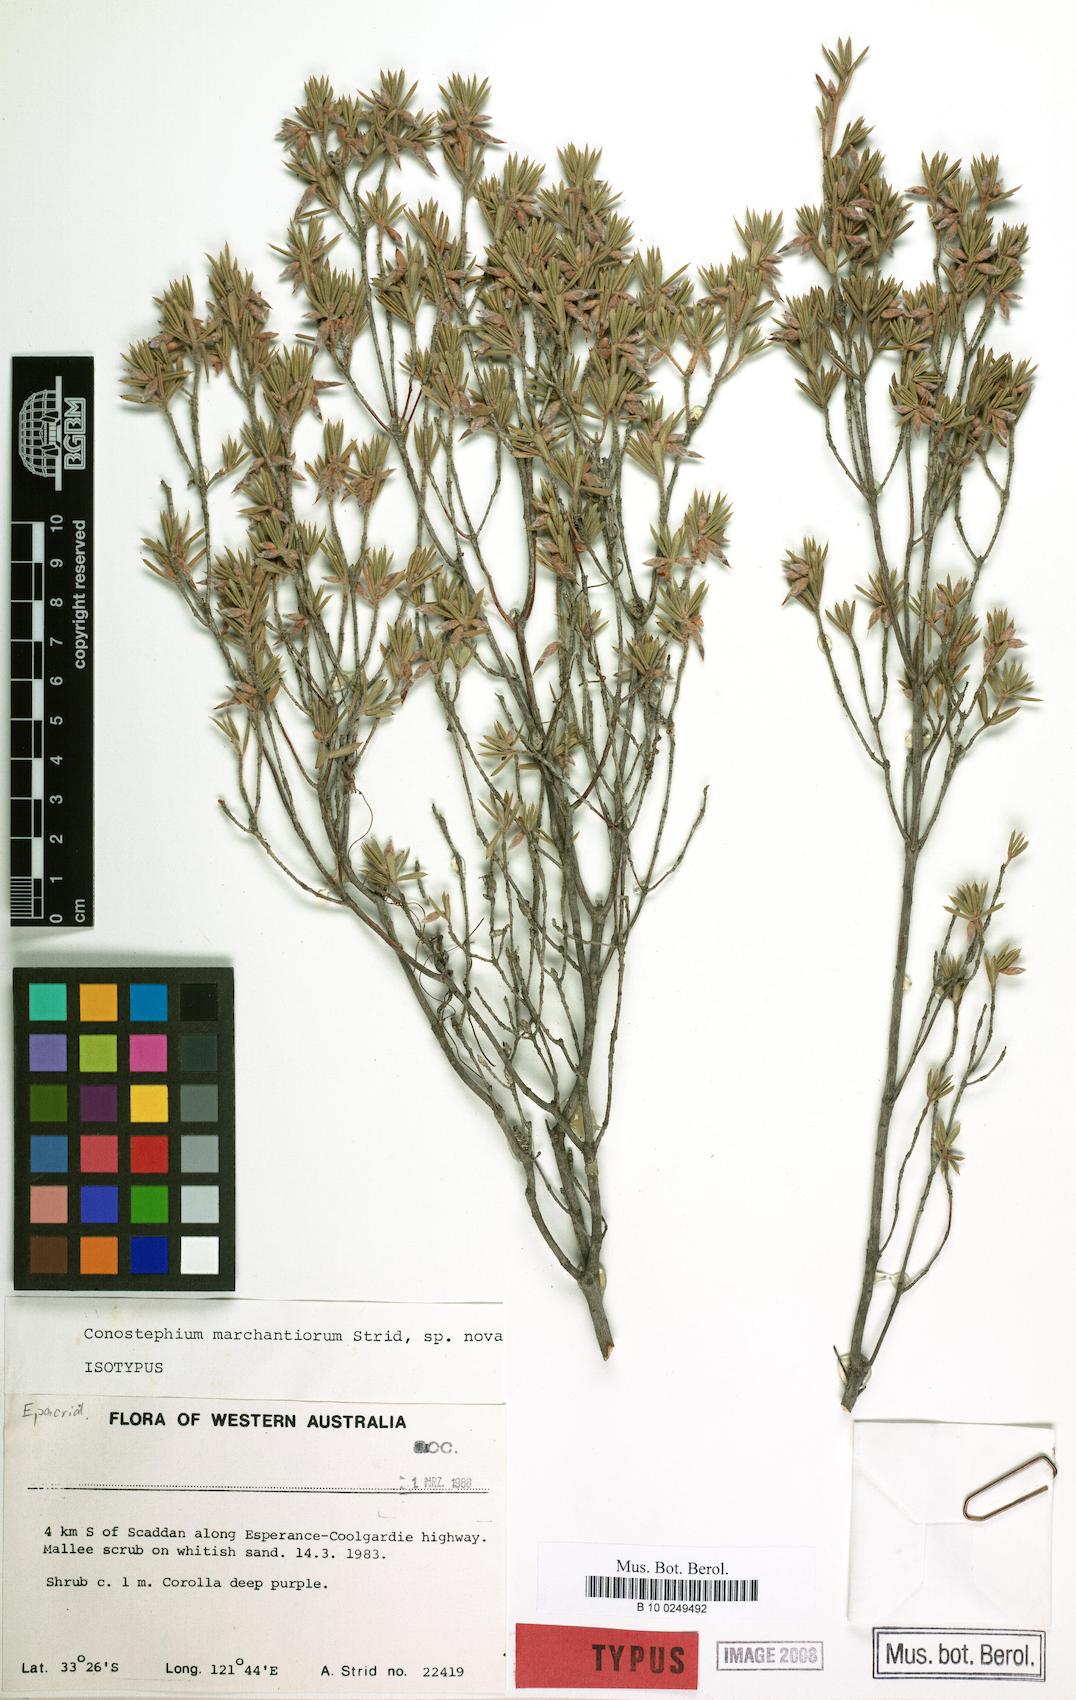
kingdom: Plantae
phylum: Tracheophyta
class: Magnoliopsida
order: Ericales
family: Ericaceae
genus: Conostephium
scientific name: Conostephium marchantiorum
